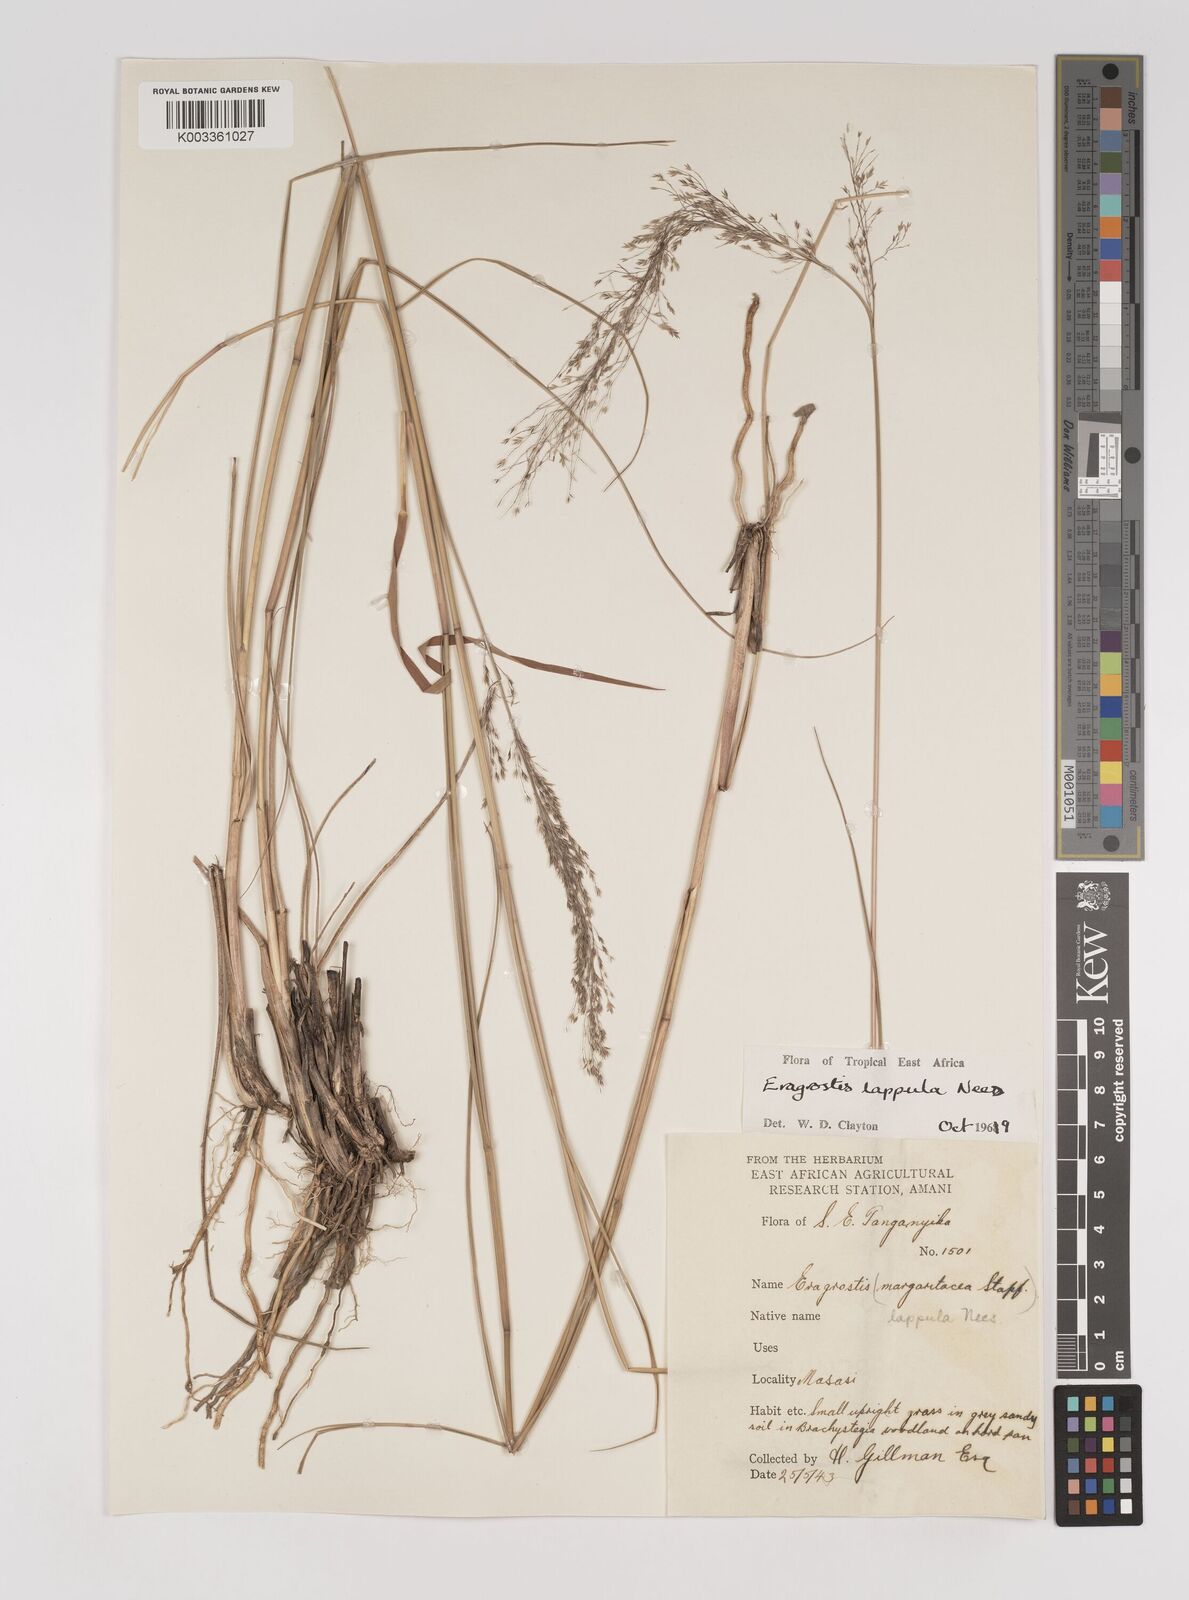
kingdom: Plantae
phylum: Tracheophyta
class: Liliopsida
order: Poales
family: Poaceae
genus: Eragrostis
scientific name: Eragrostis lappula
